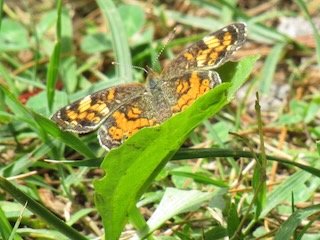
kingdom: Animalia
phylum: Arthropoda
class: Insecta
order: Lepidoptera
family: Nymphalidae
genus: Phyciodes
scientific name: Phyciodes tharos
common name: Pearl Crescent
